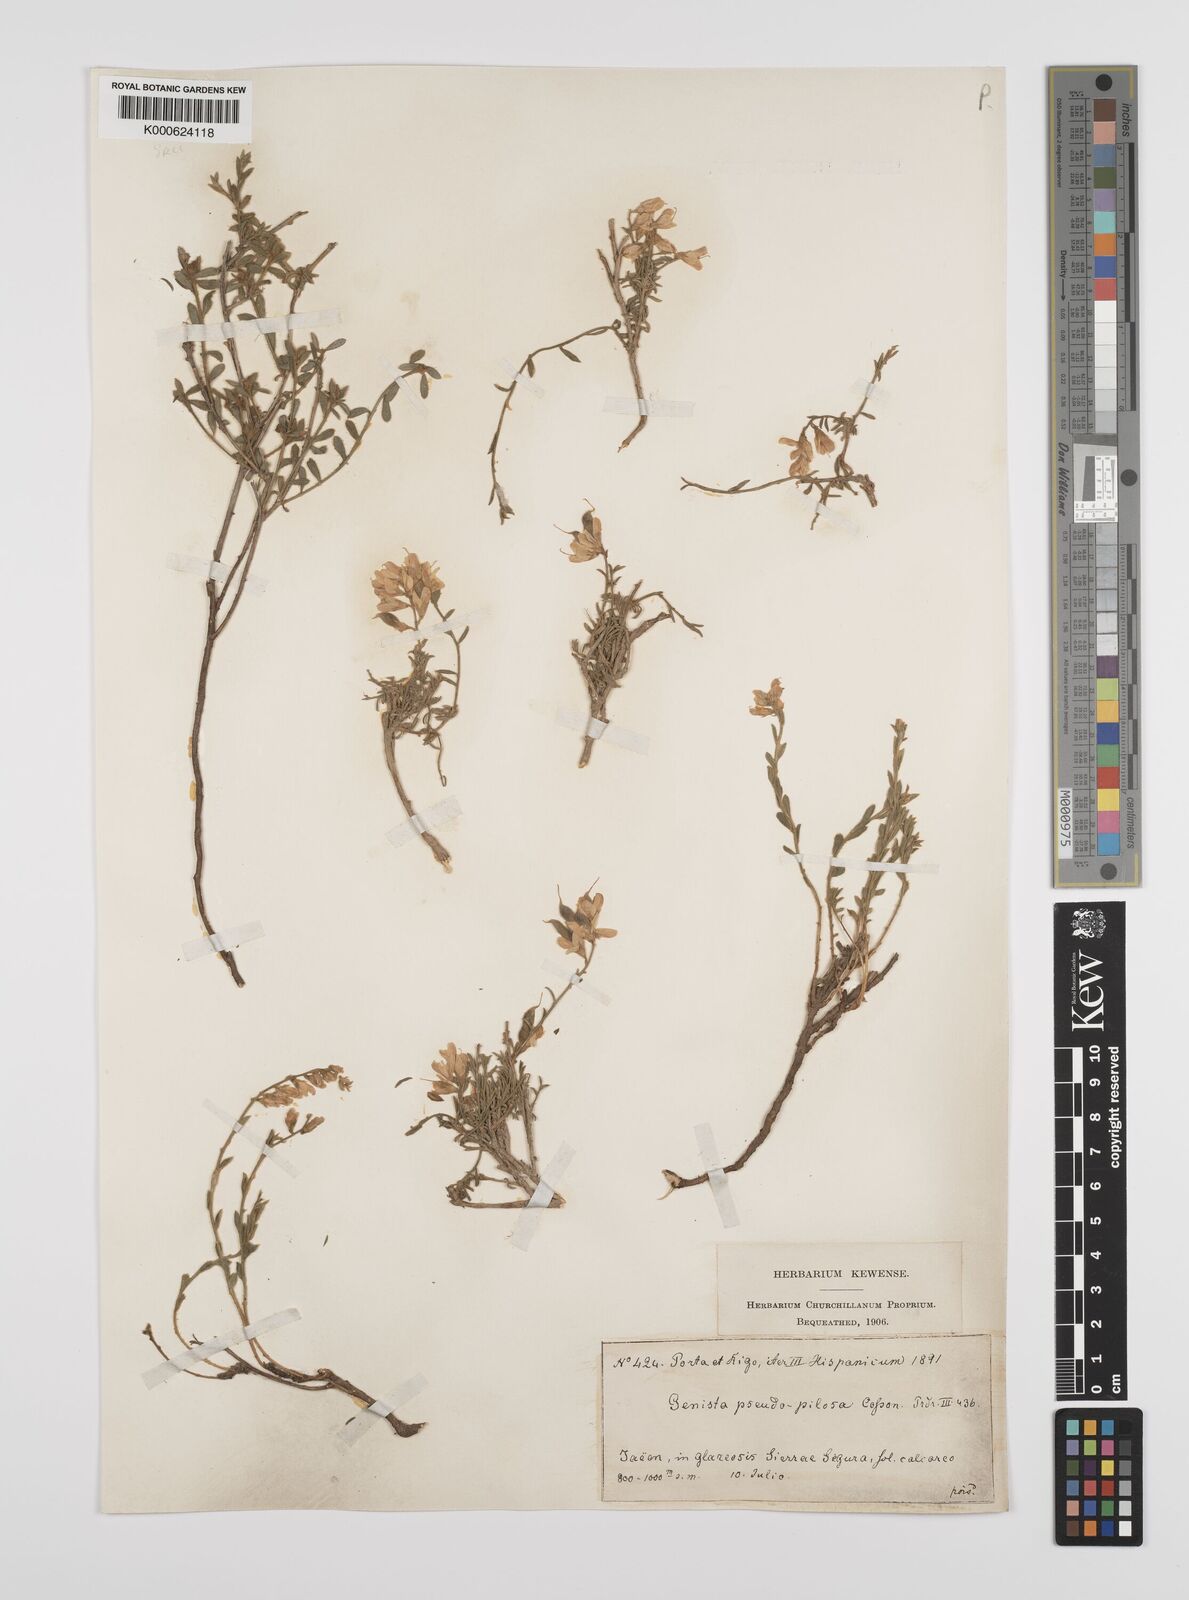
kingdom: Plantae
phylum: Tracheophyta
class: Magnoliopsida
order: Fabales
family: Fabaceae
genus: Genista
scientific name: Genista pseudopilosa
